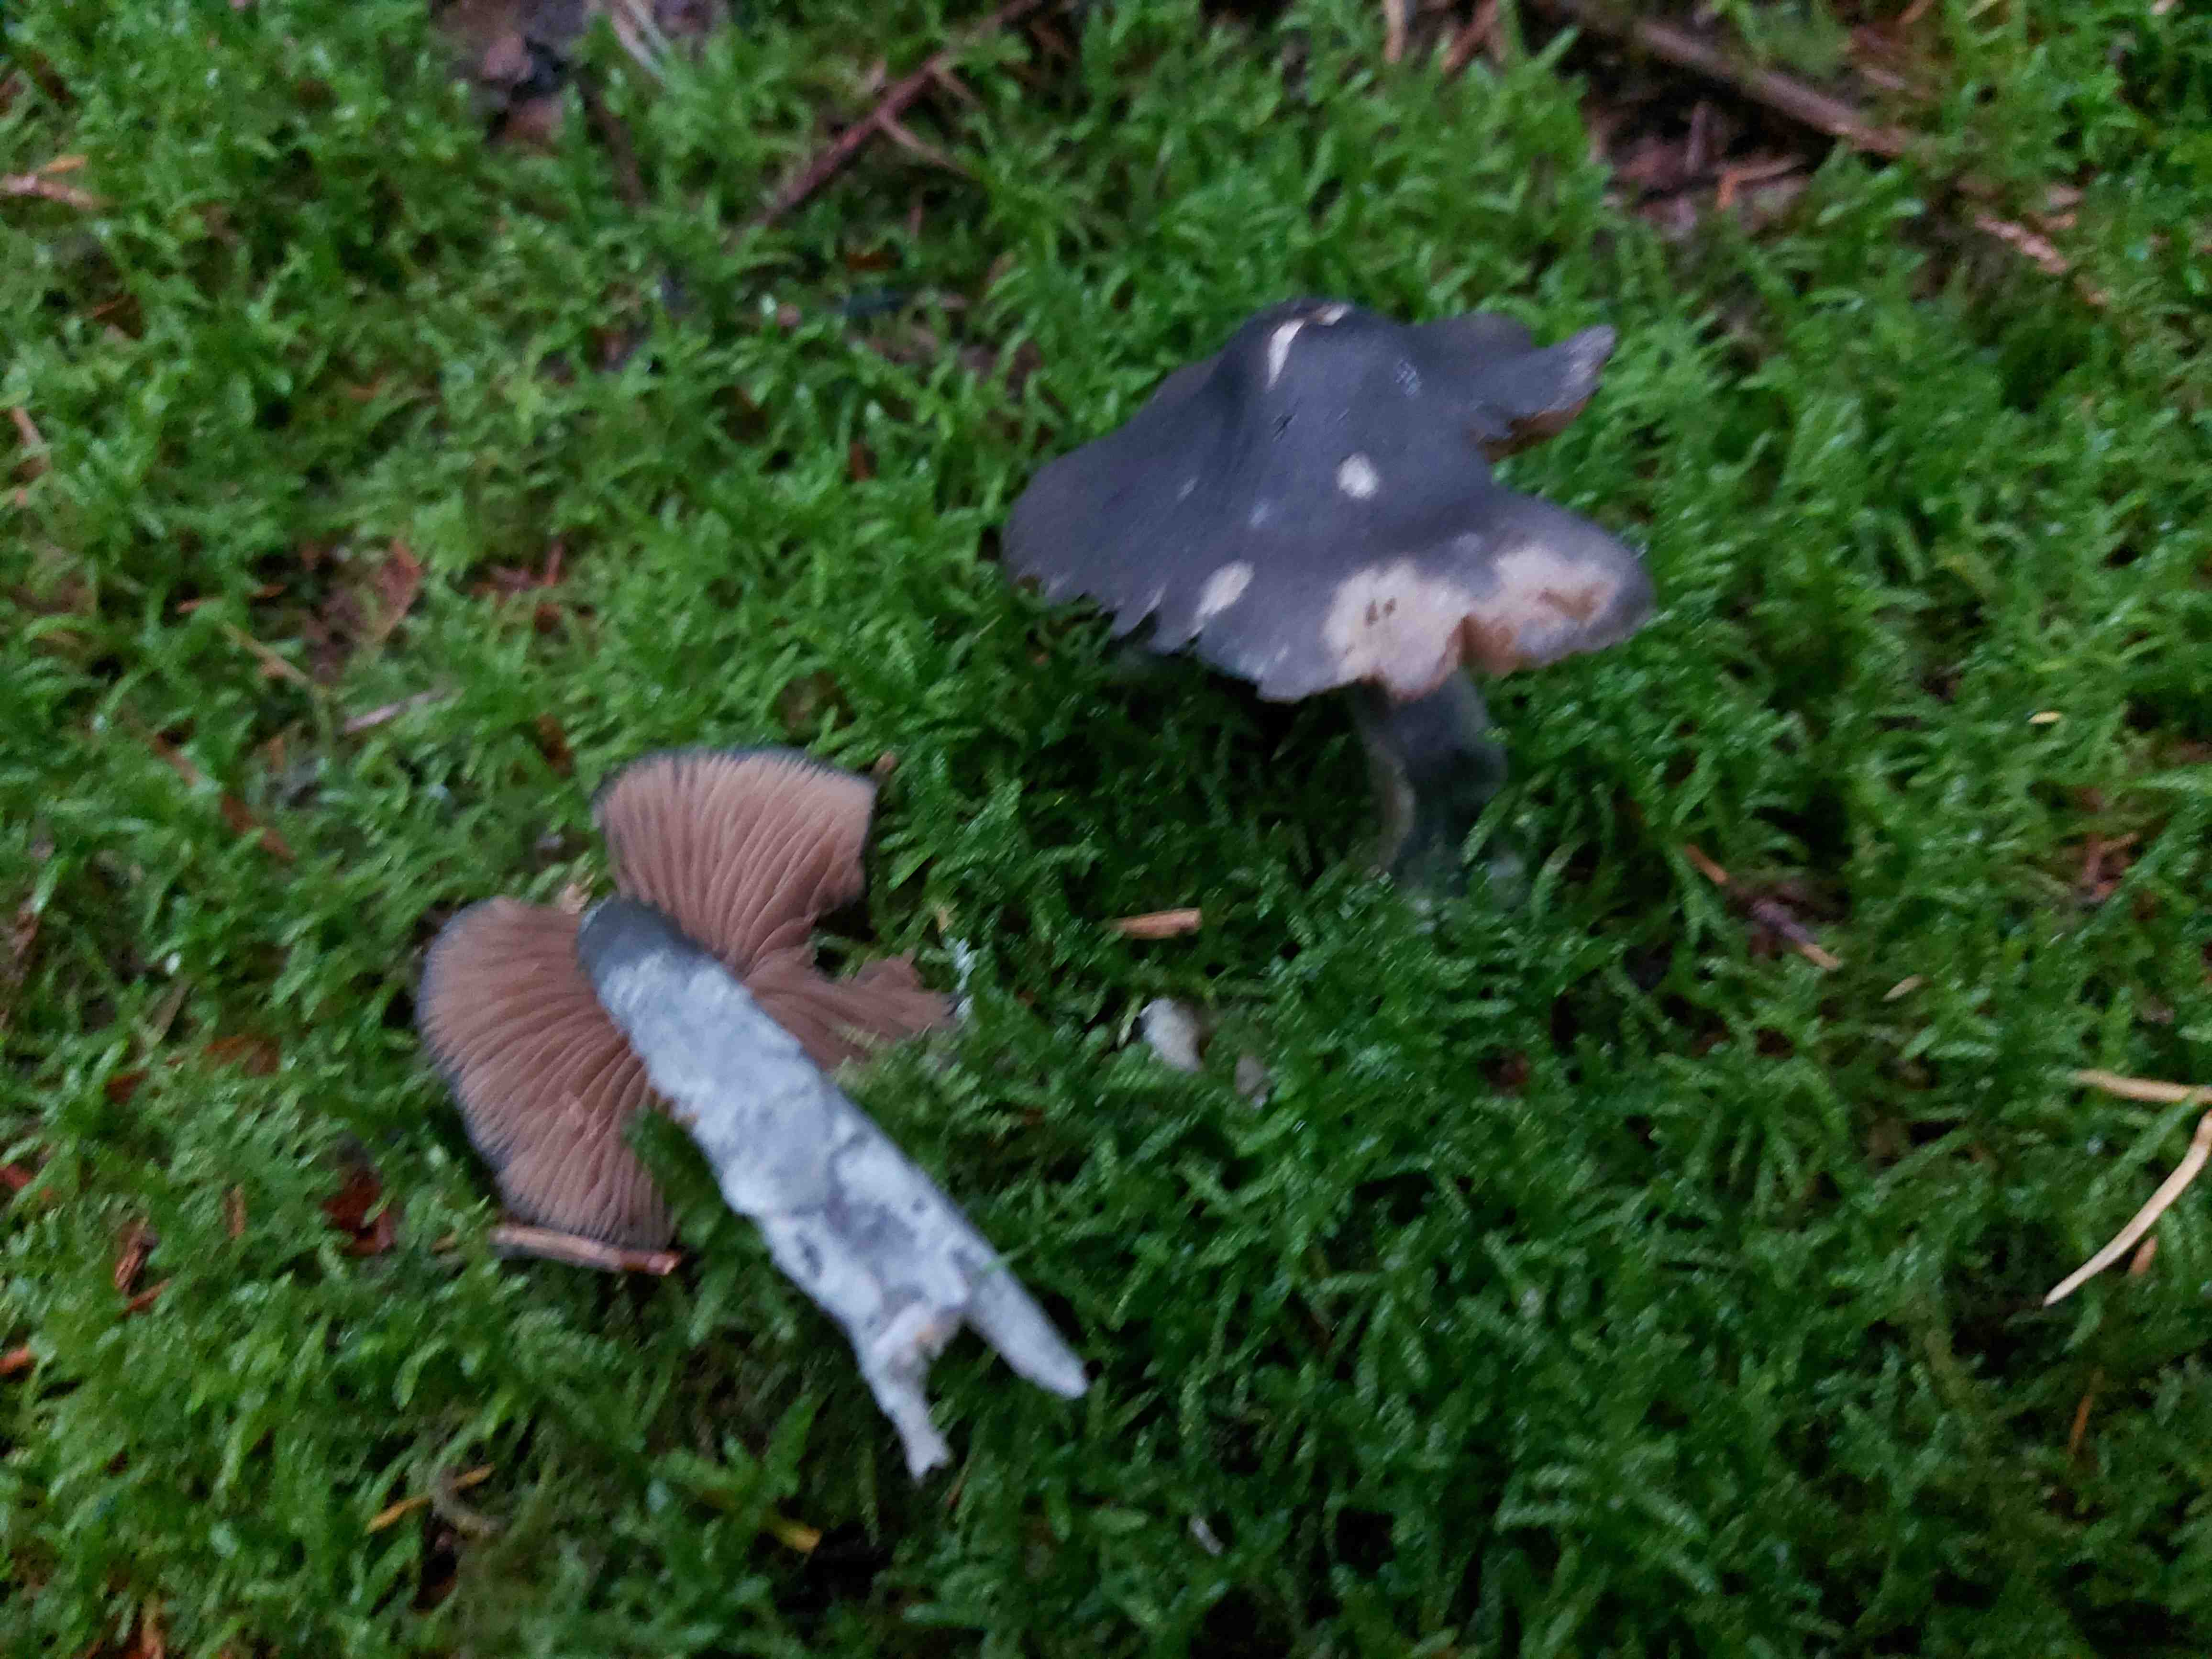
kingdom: Fungi
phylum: Basidiomycota
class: Agaricomycetes
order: Agaricales
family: Entolomataceae
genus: Entocybe
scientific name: Entocybe nitida
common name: stålblå rødblad
